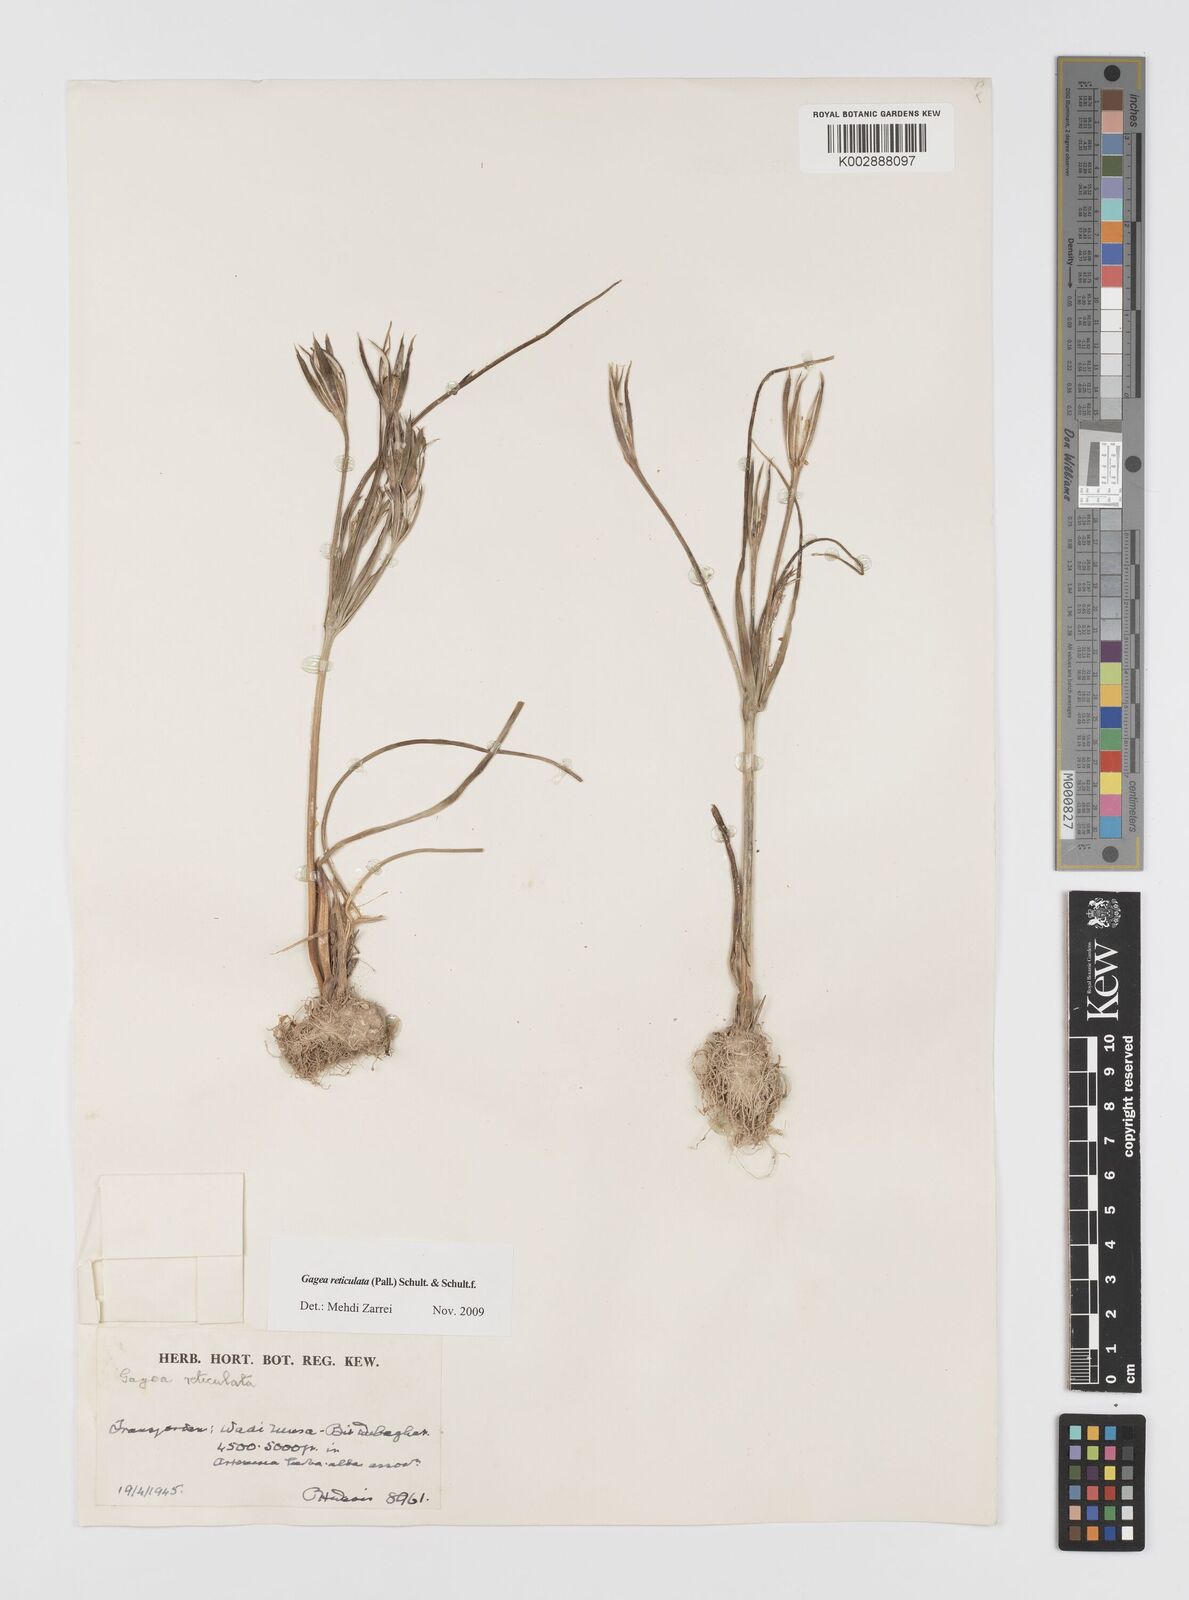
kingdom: Plantae
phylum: Tracheophyta
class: Liliopsida
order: Liliales
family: Liliaceae
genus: Gagea
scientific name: Gagea reticulata
